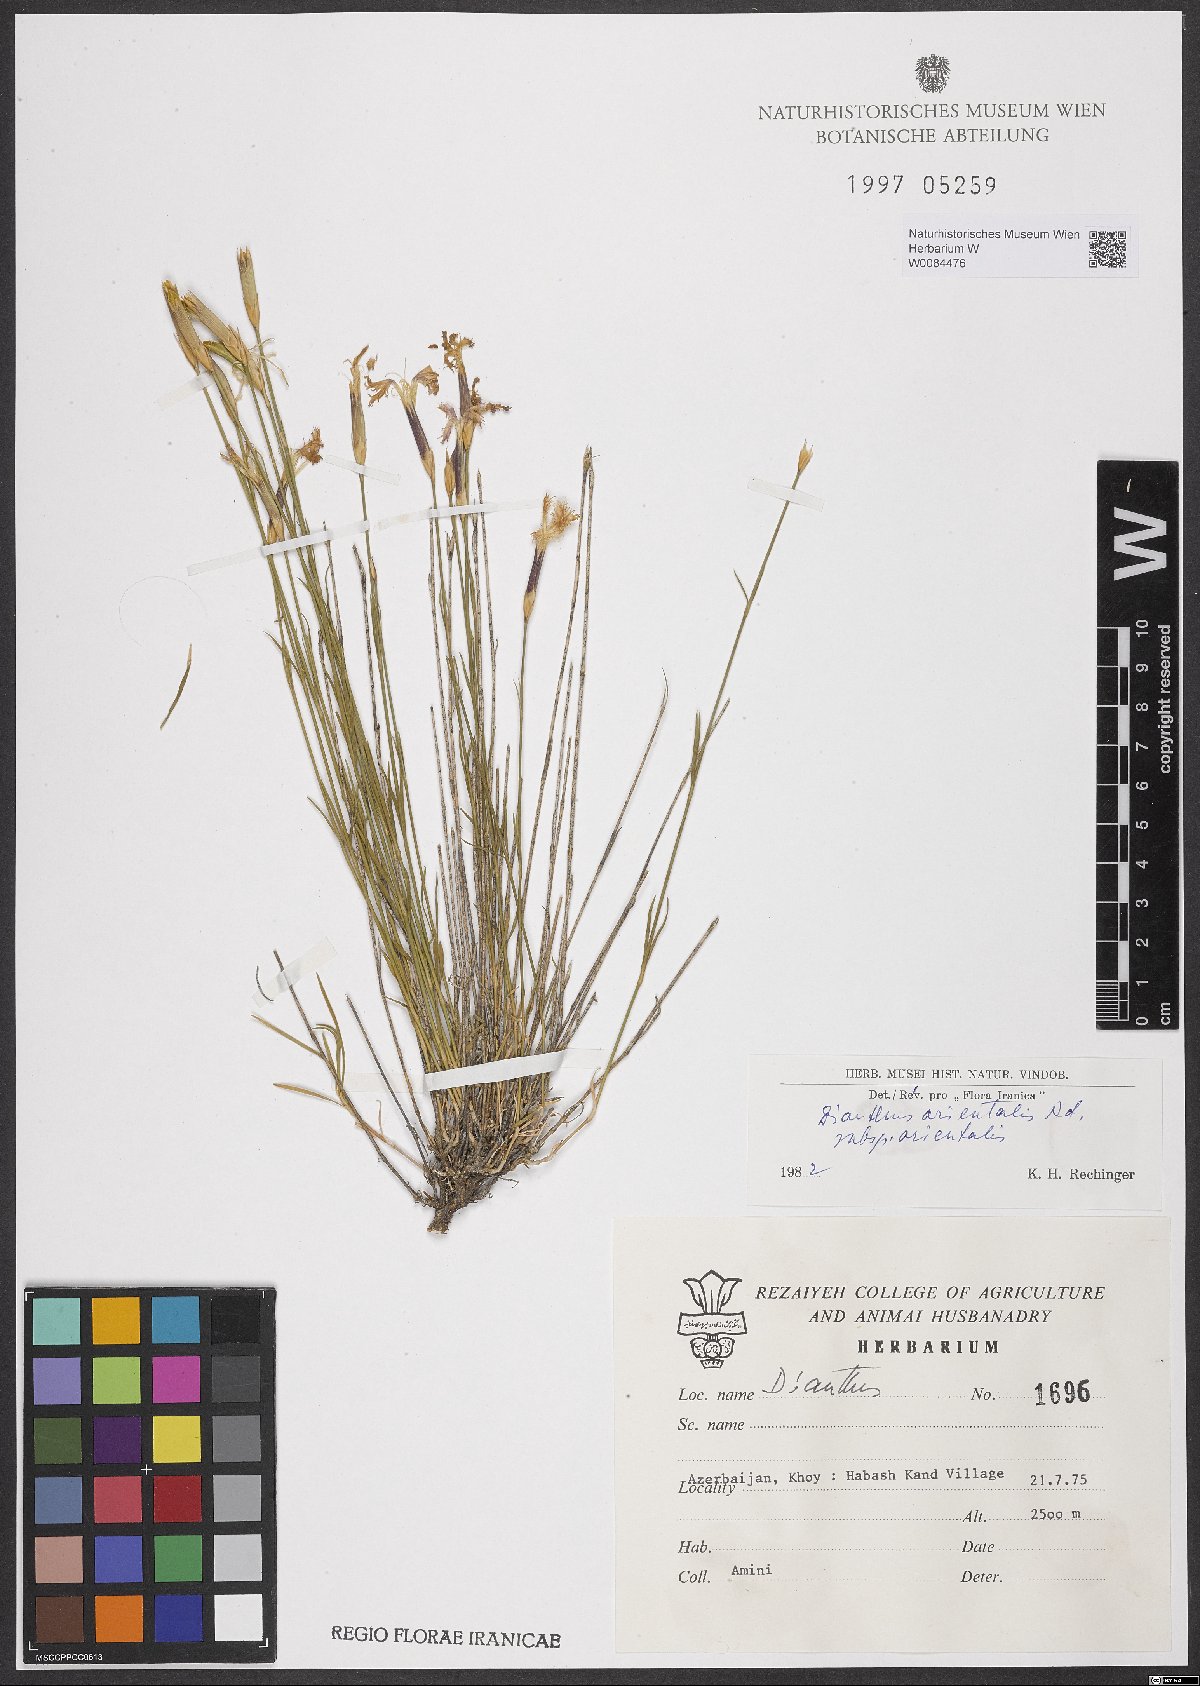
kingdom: Plantae
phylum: Tracheophyta
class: Magnoliopsida
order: Caryophyllales
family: Caryophyllaceae
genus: Dianthus
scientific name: Dianthus orientalis
